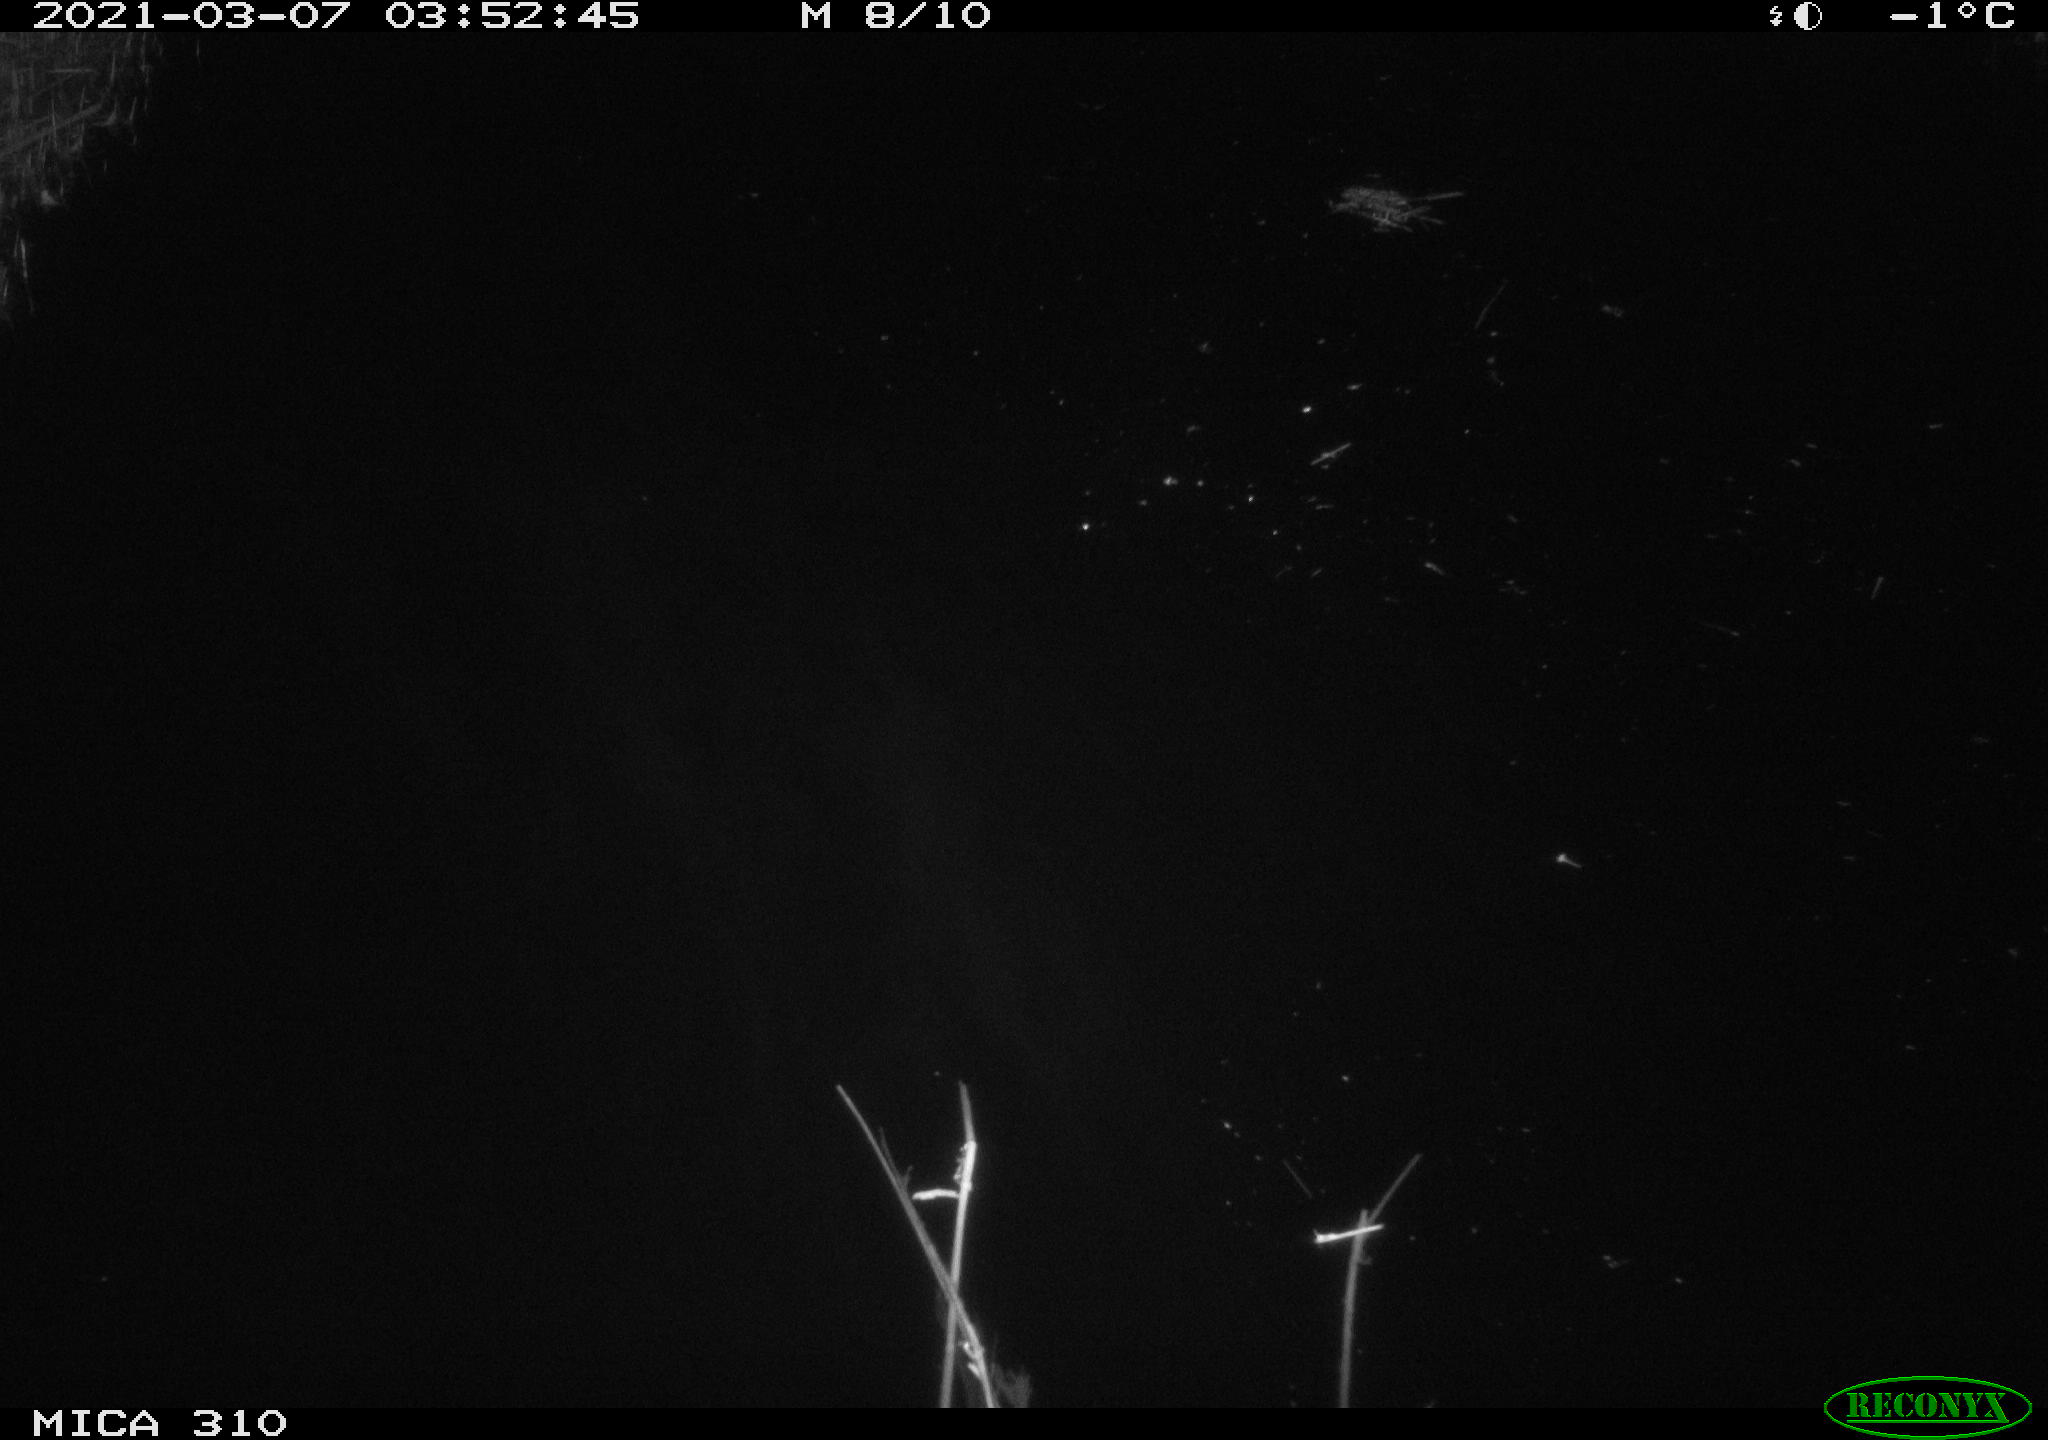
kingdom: Animalia
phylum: Chordata
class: Aves
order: Gruiformes
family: Rallidae
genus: Gallinula
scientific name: Gallinula chloropus
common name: Common moorhen
